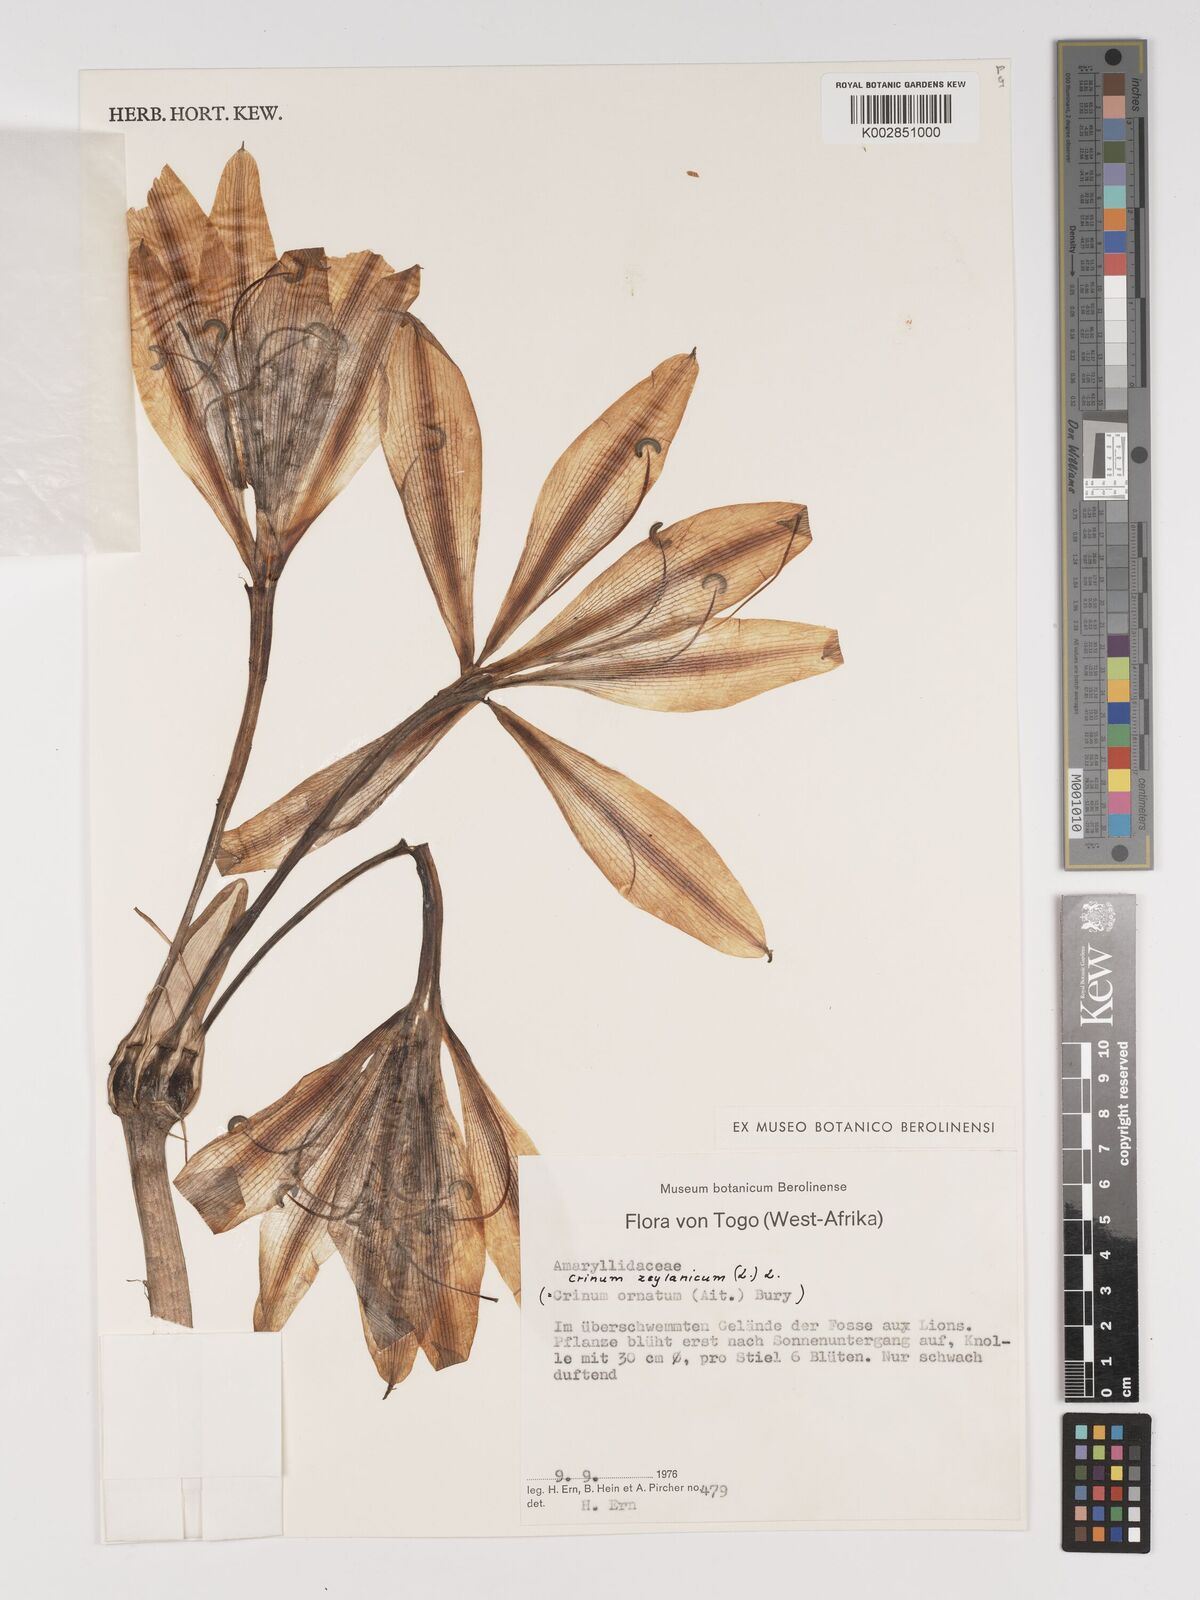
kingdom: Plantae
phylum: Tracheophyta
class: Liliopsida
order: Asparagales
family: Amaryllidaceae
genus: Crinum
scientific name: Crinum ornatum
